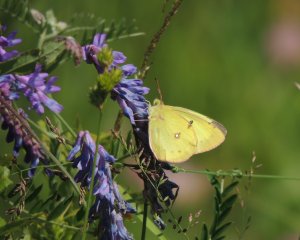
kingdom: Animalia
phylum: Arthropoda
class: Insecta
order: Lepidoptera
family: Pieridae
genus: Colias
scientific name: Colias philodice
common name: Clouded Sulphur
